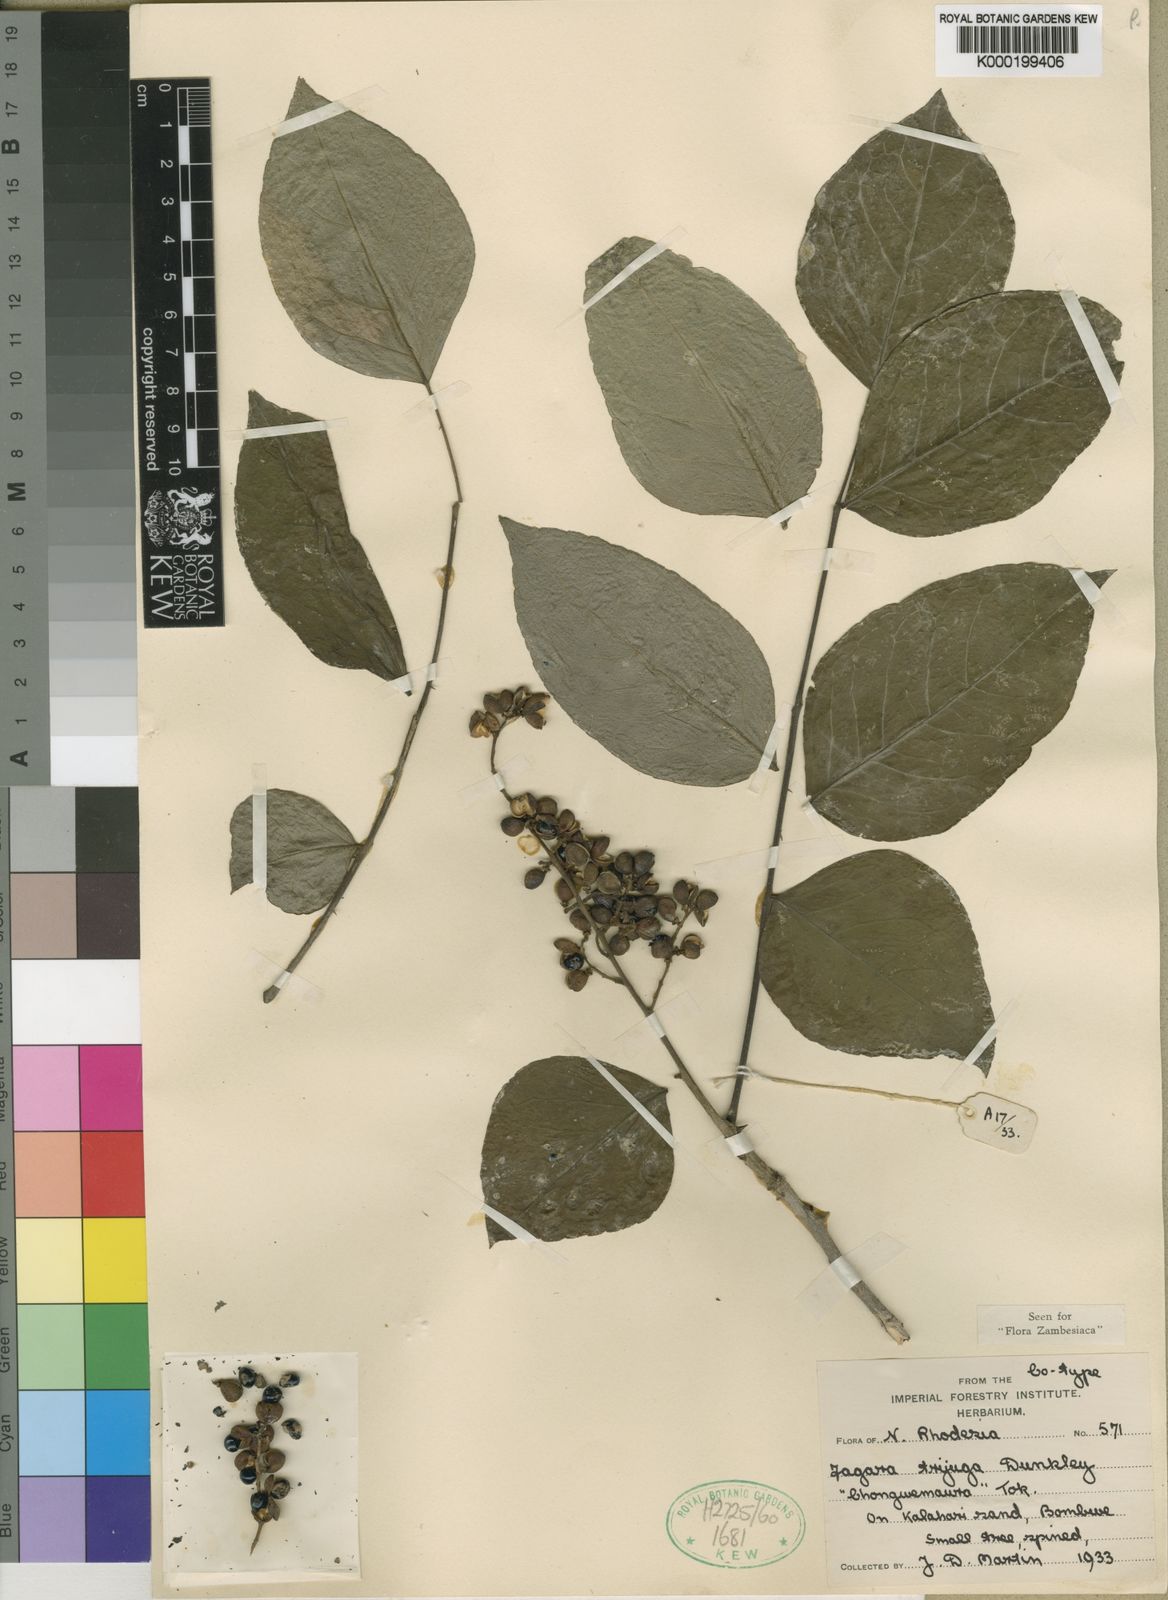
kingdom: Plantae
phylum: Tracheophyta
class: Magnoliopsida
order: Sapindales
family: Rutaceae
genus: Zanthoxylum
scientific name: Zanthoxylum trijugum
